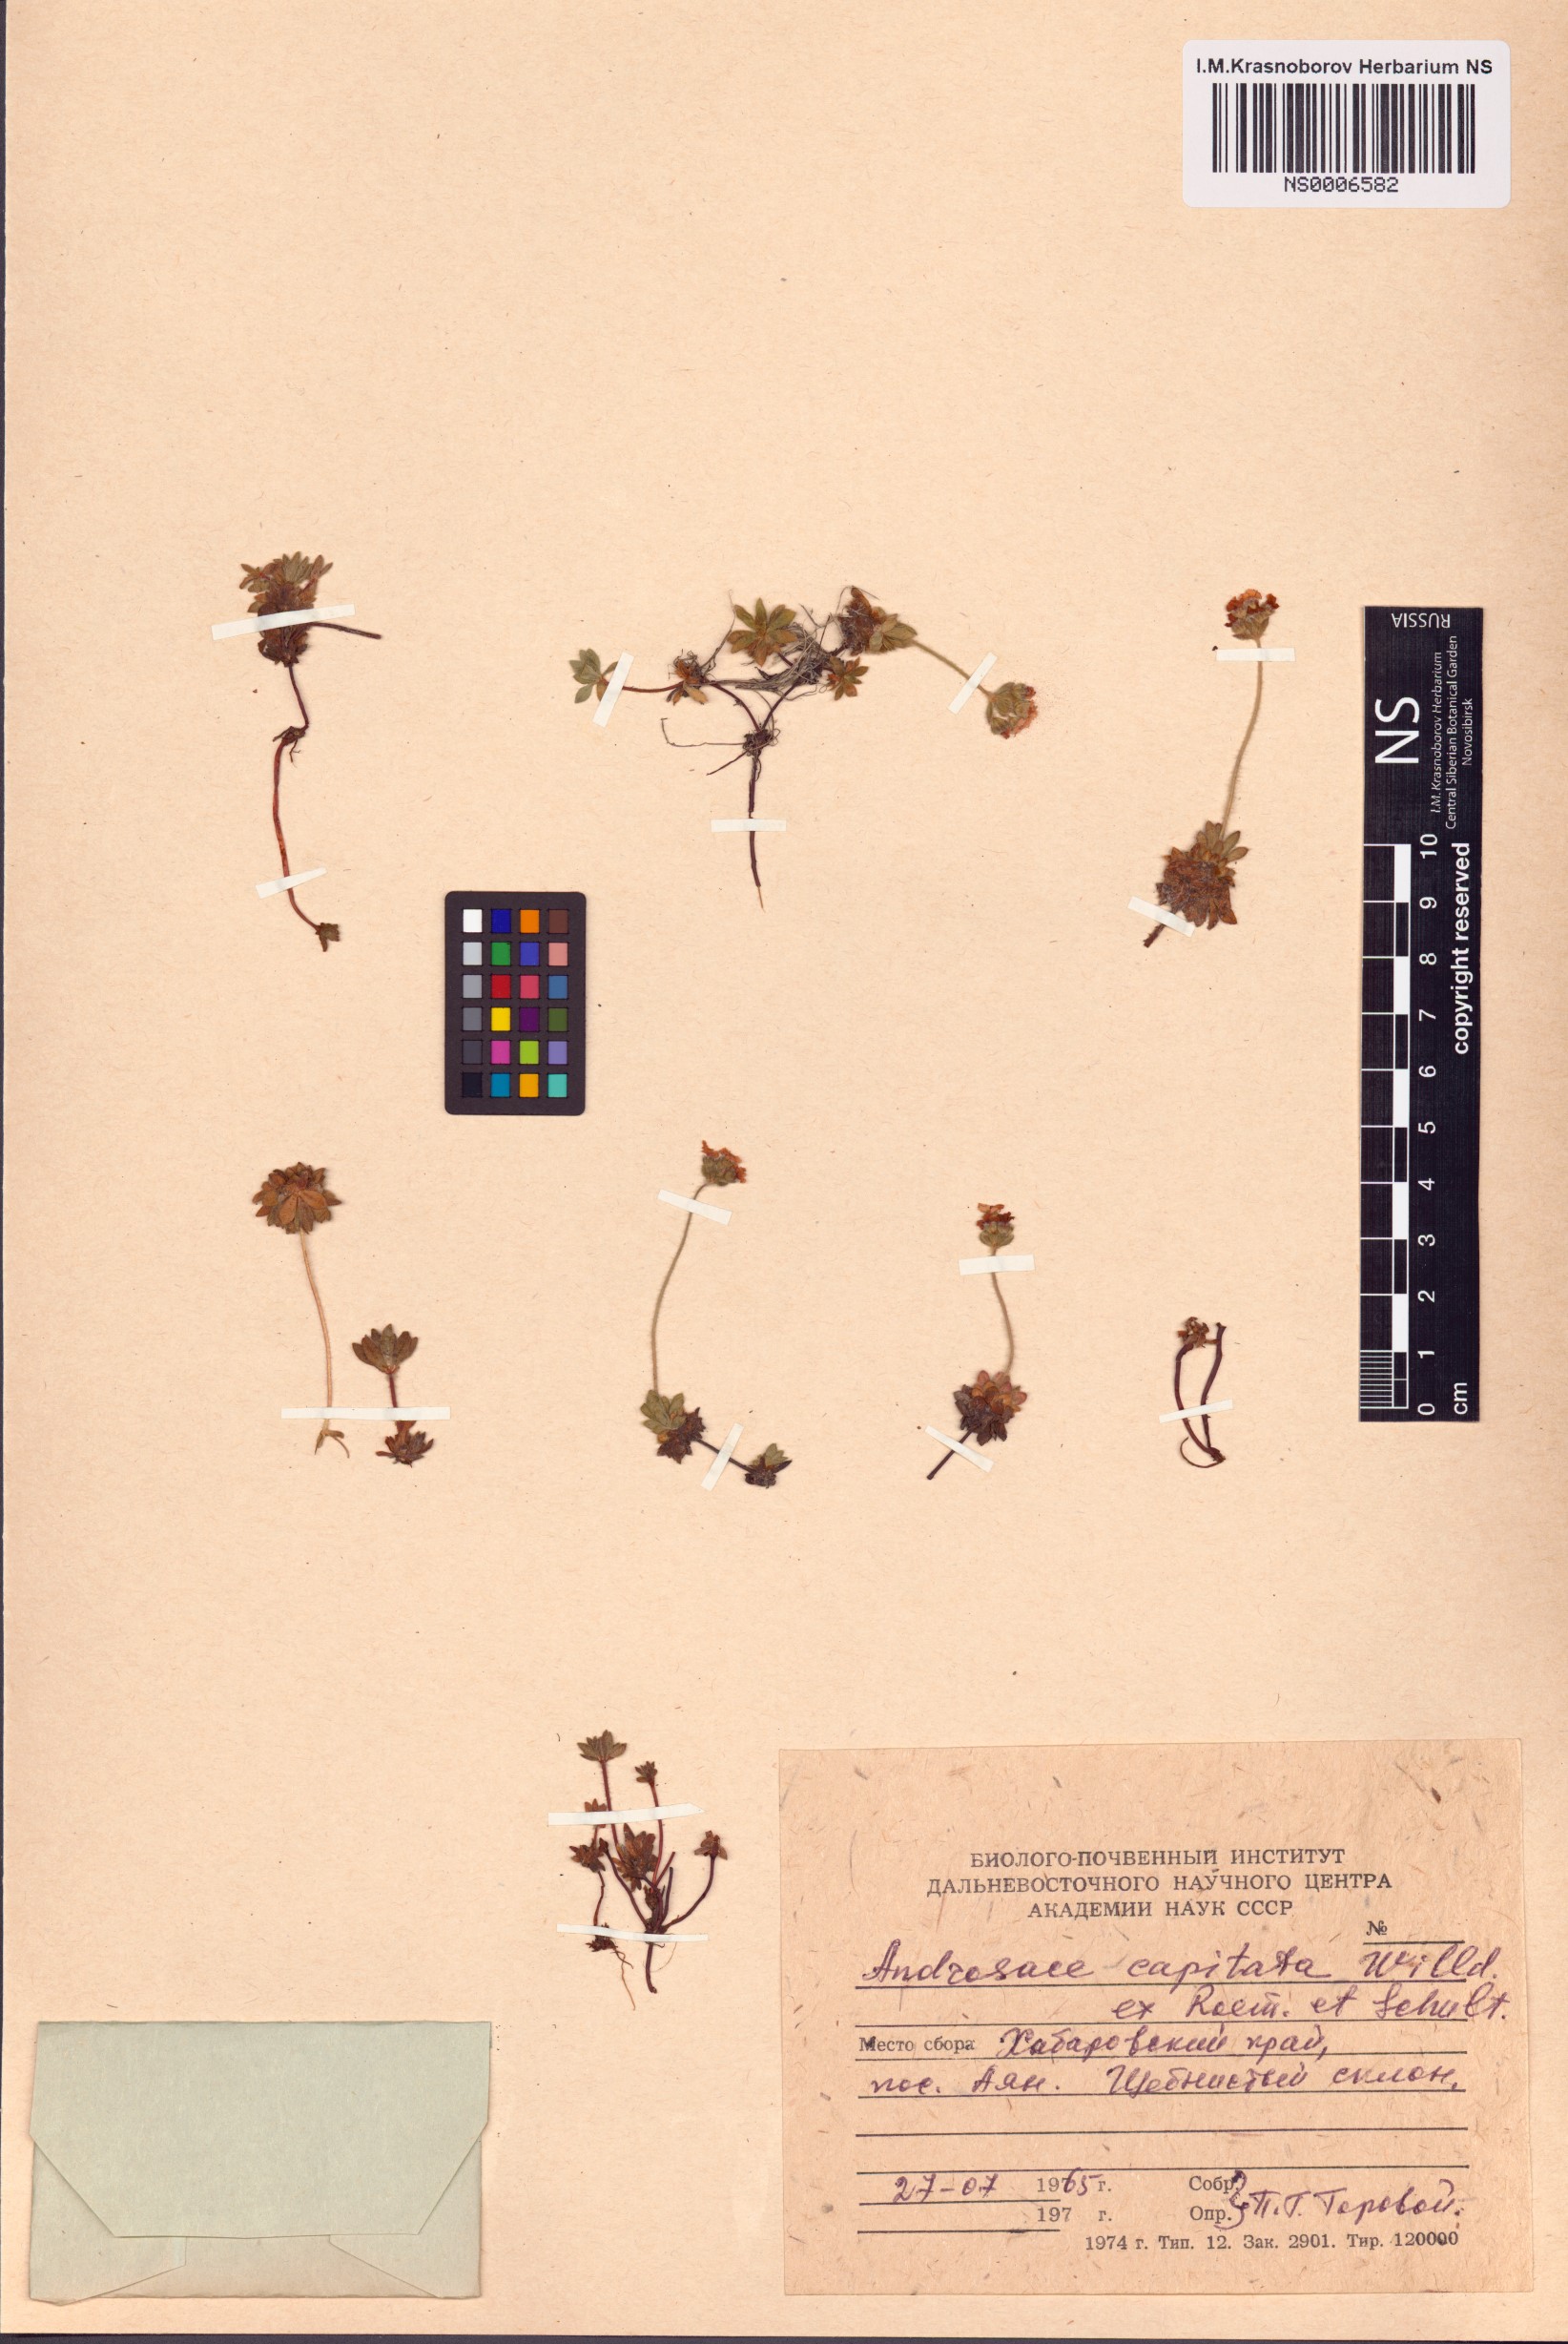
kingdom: Plantae
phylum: Tracheophyta
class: Magnoliopsida
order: Ericales
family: Primulaceae
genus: Androsace
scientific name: Androsace chamaejasme
